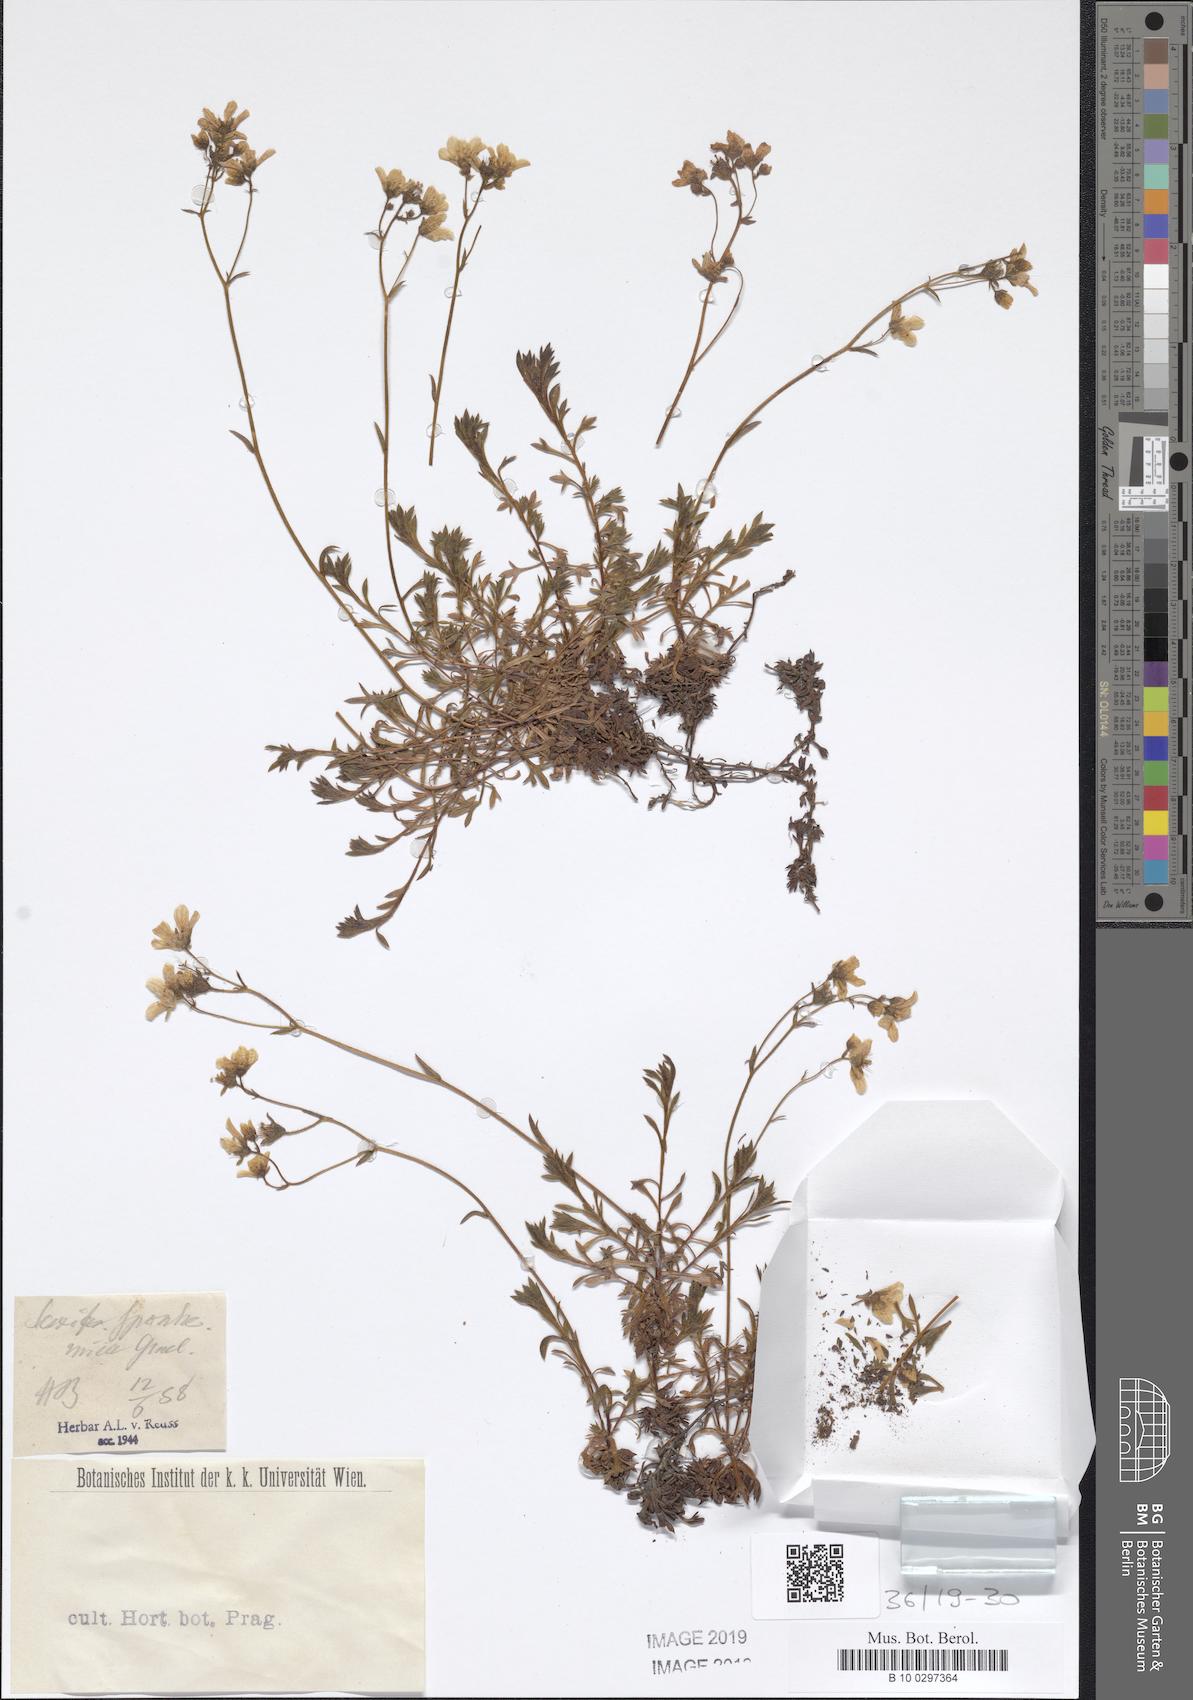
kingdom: Plantae
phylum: Tracheophyta
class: Magnoliopsida
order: Saxifragales
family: Saxifragaceae
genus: Saxifraga
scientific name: Saxifraga rosacea
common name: Irish saxifrage
